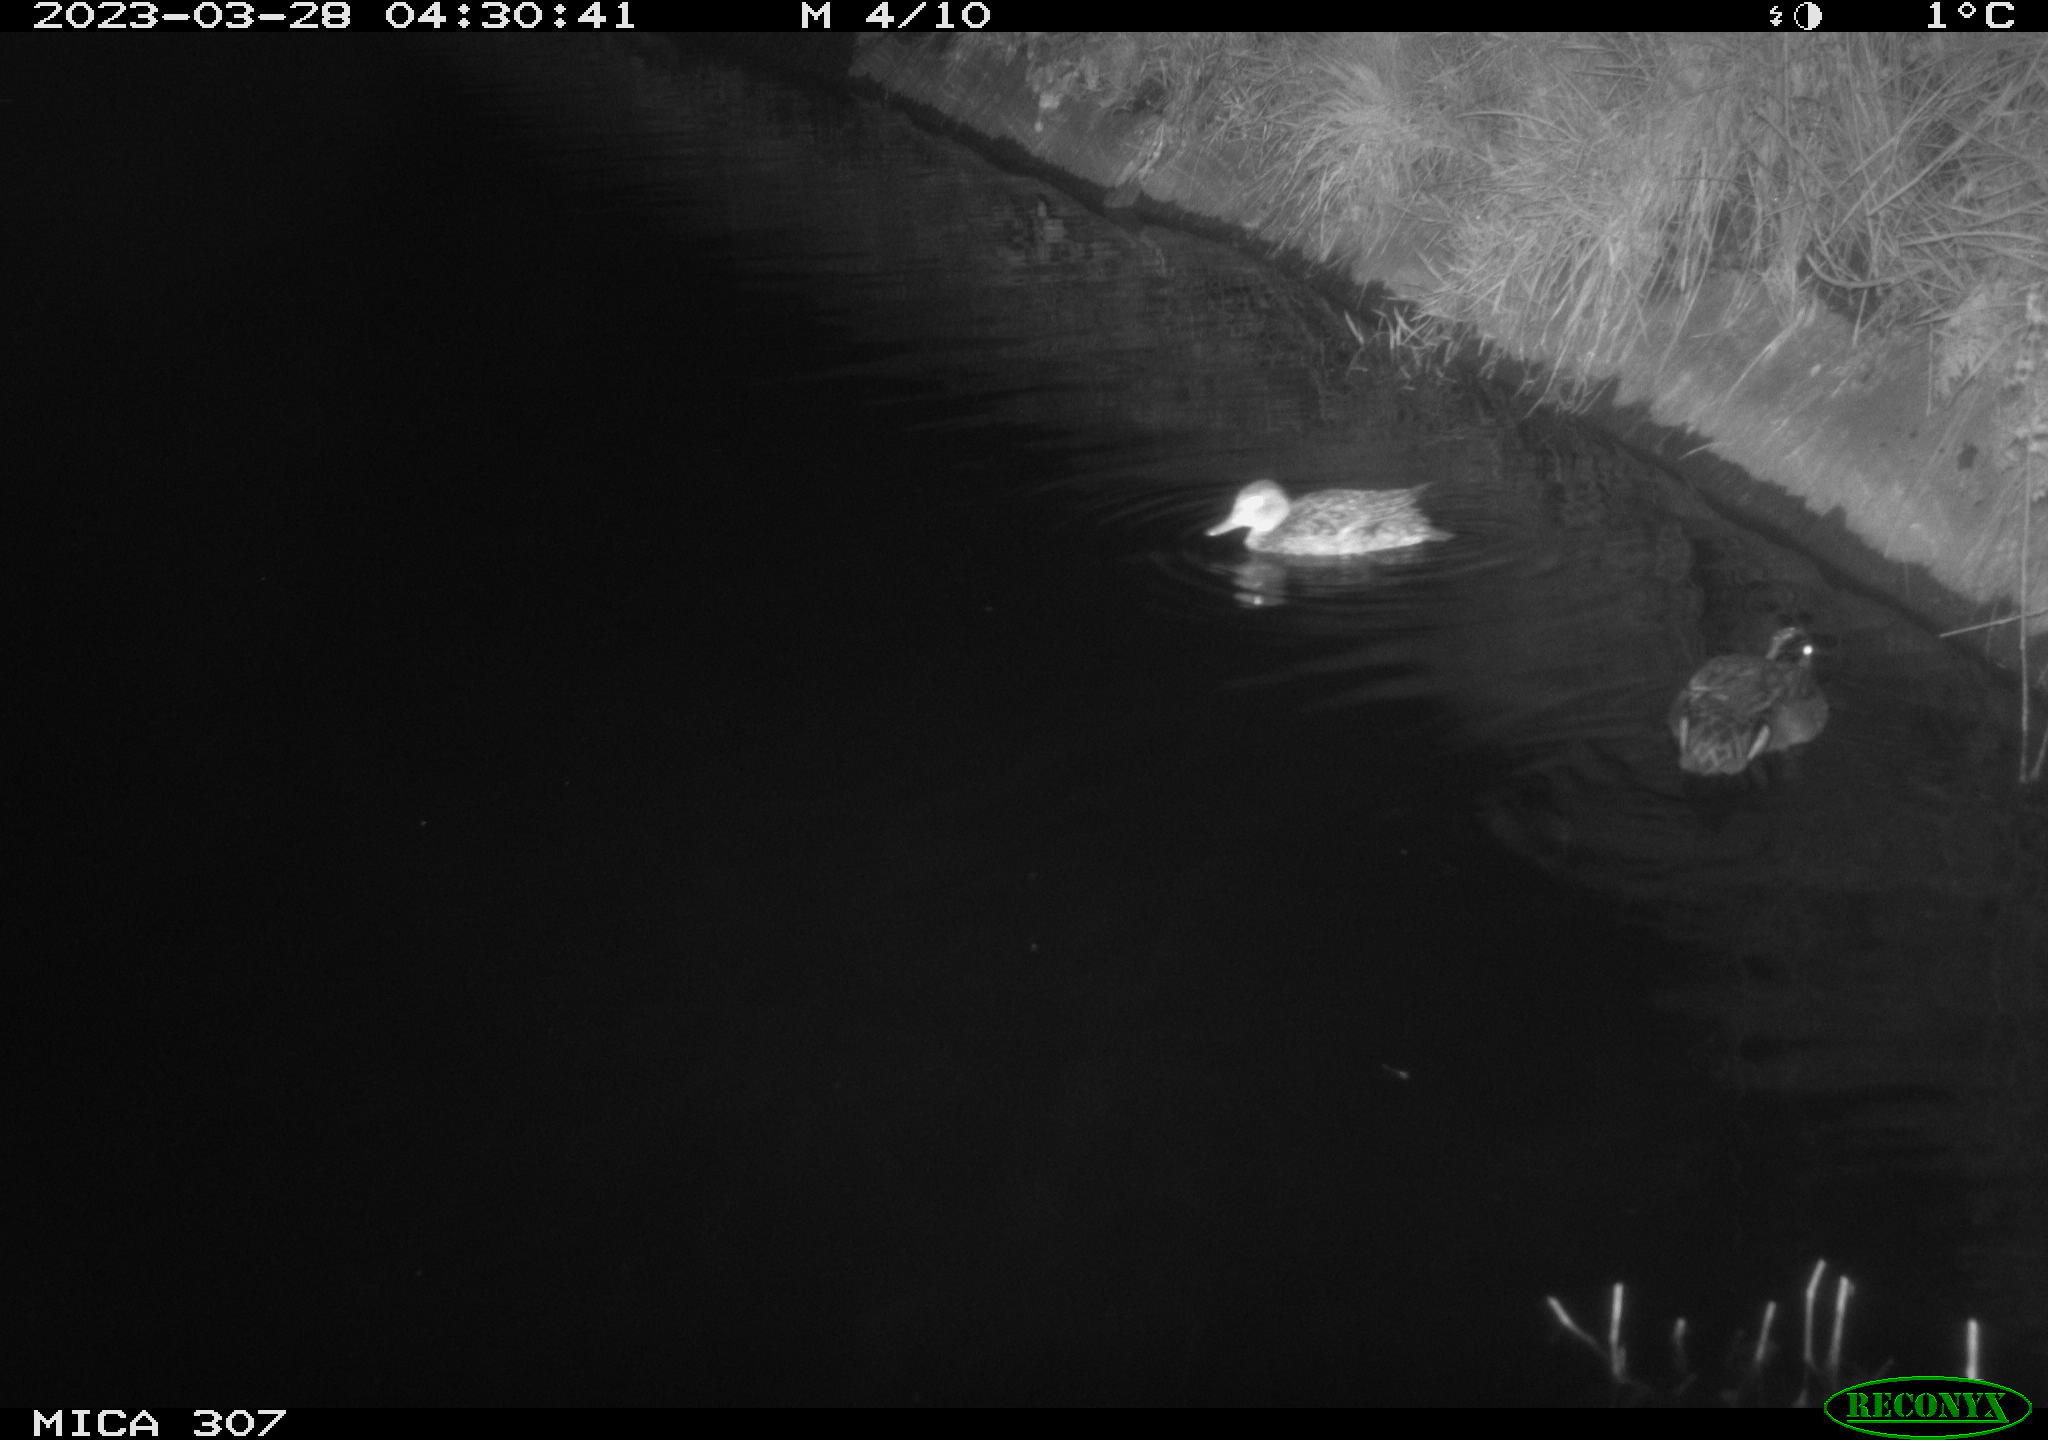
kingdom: Animalia
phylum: Chordata
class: Aves
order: Anseriformes
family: Anatidae
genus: Anas
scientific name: Anas
